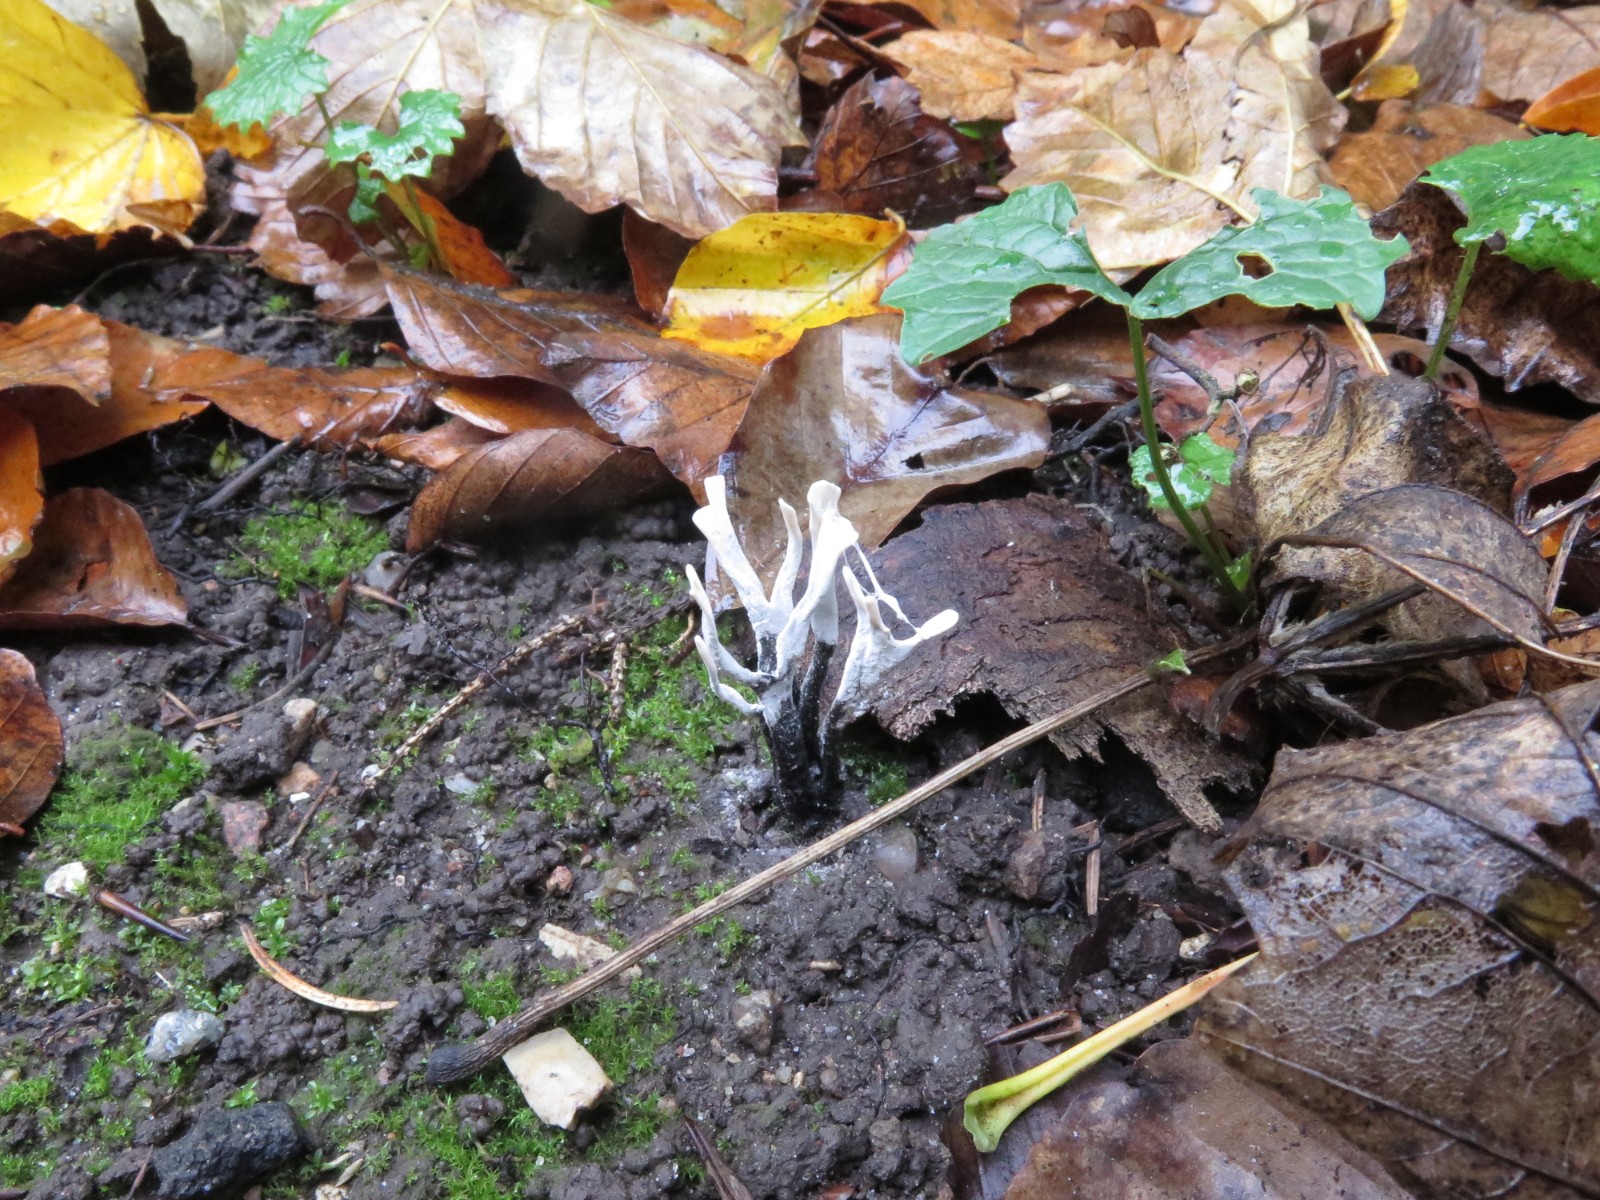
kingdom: Fungi
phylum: Ascomycota
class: Sordariomycetes
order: Xylariales
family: Xylariaceae
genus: Xylaria
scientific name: Xylaria hypoxylon
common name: grenet stødsvamp
